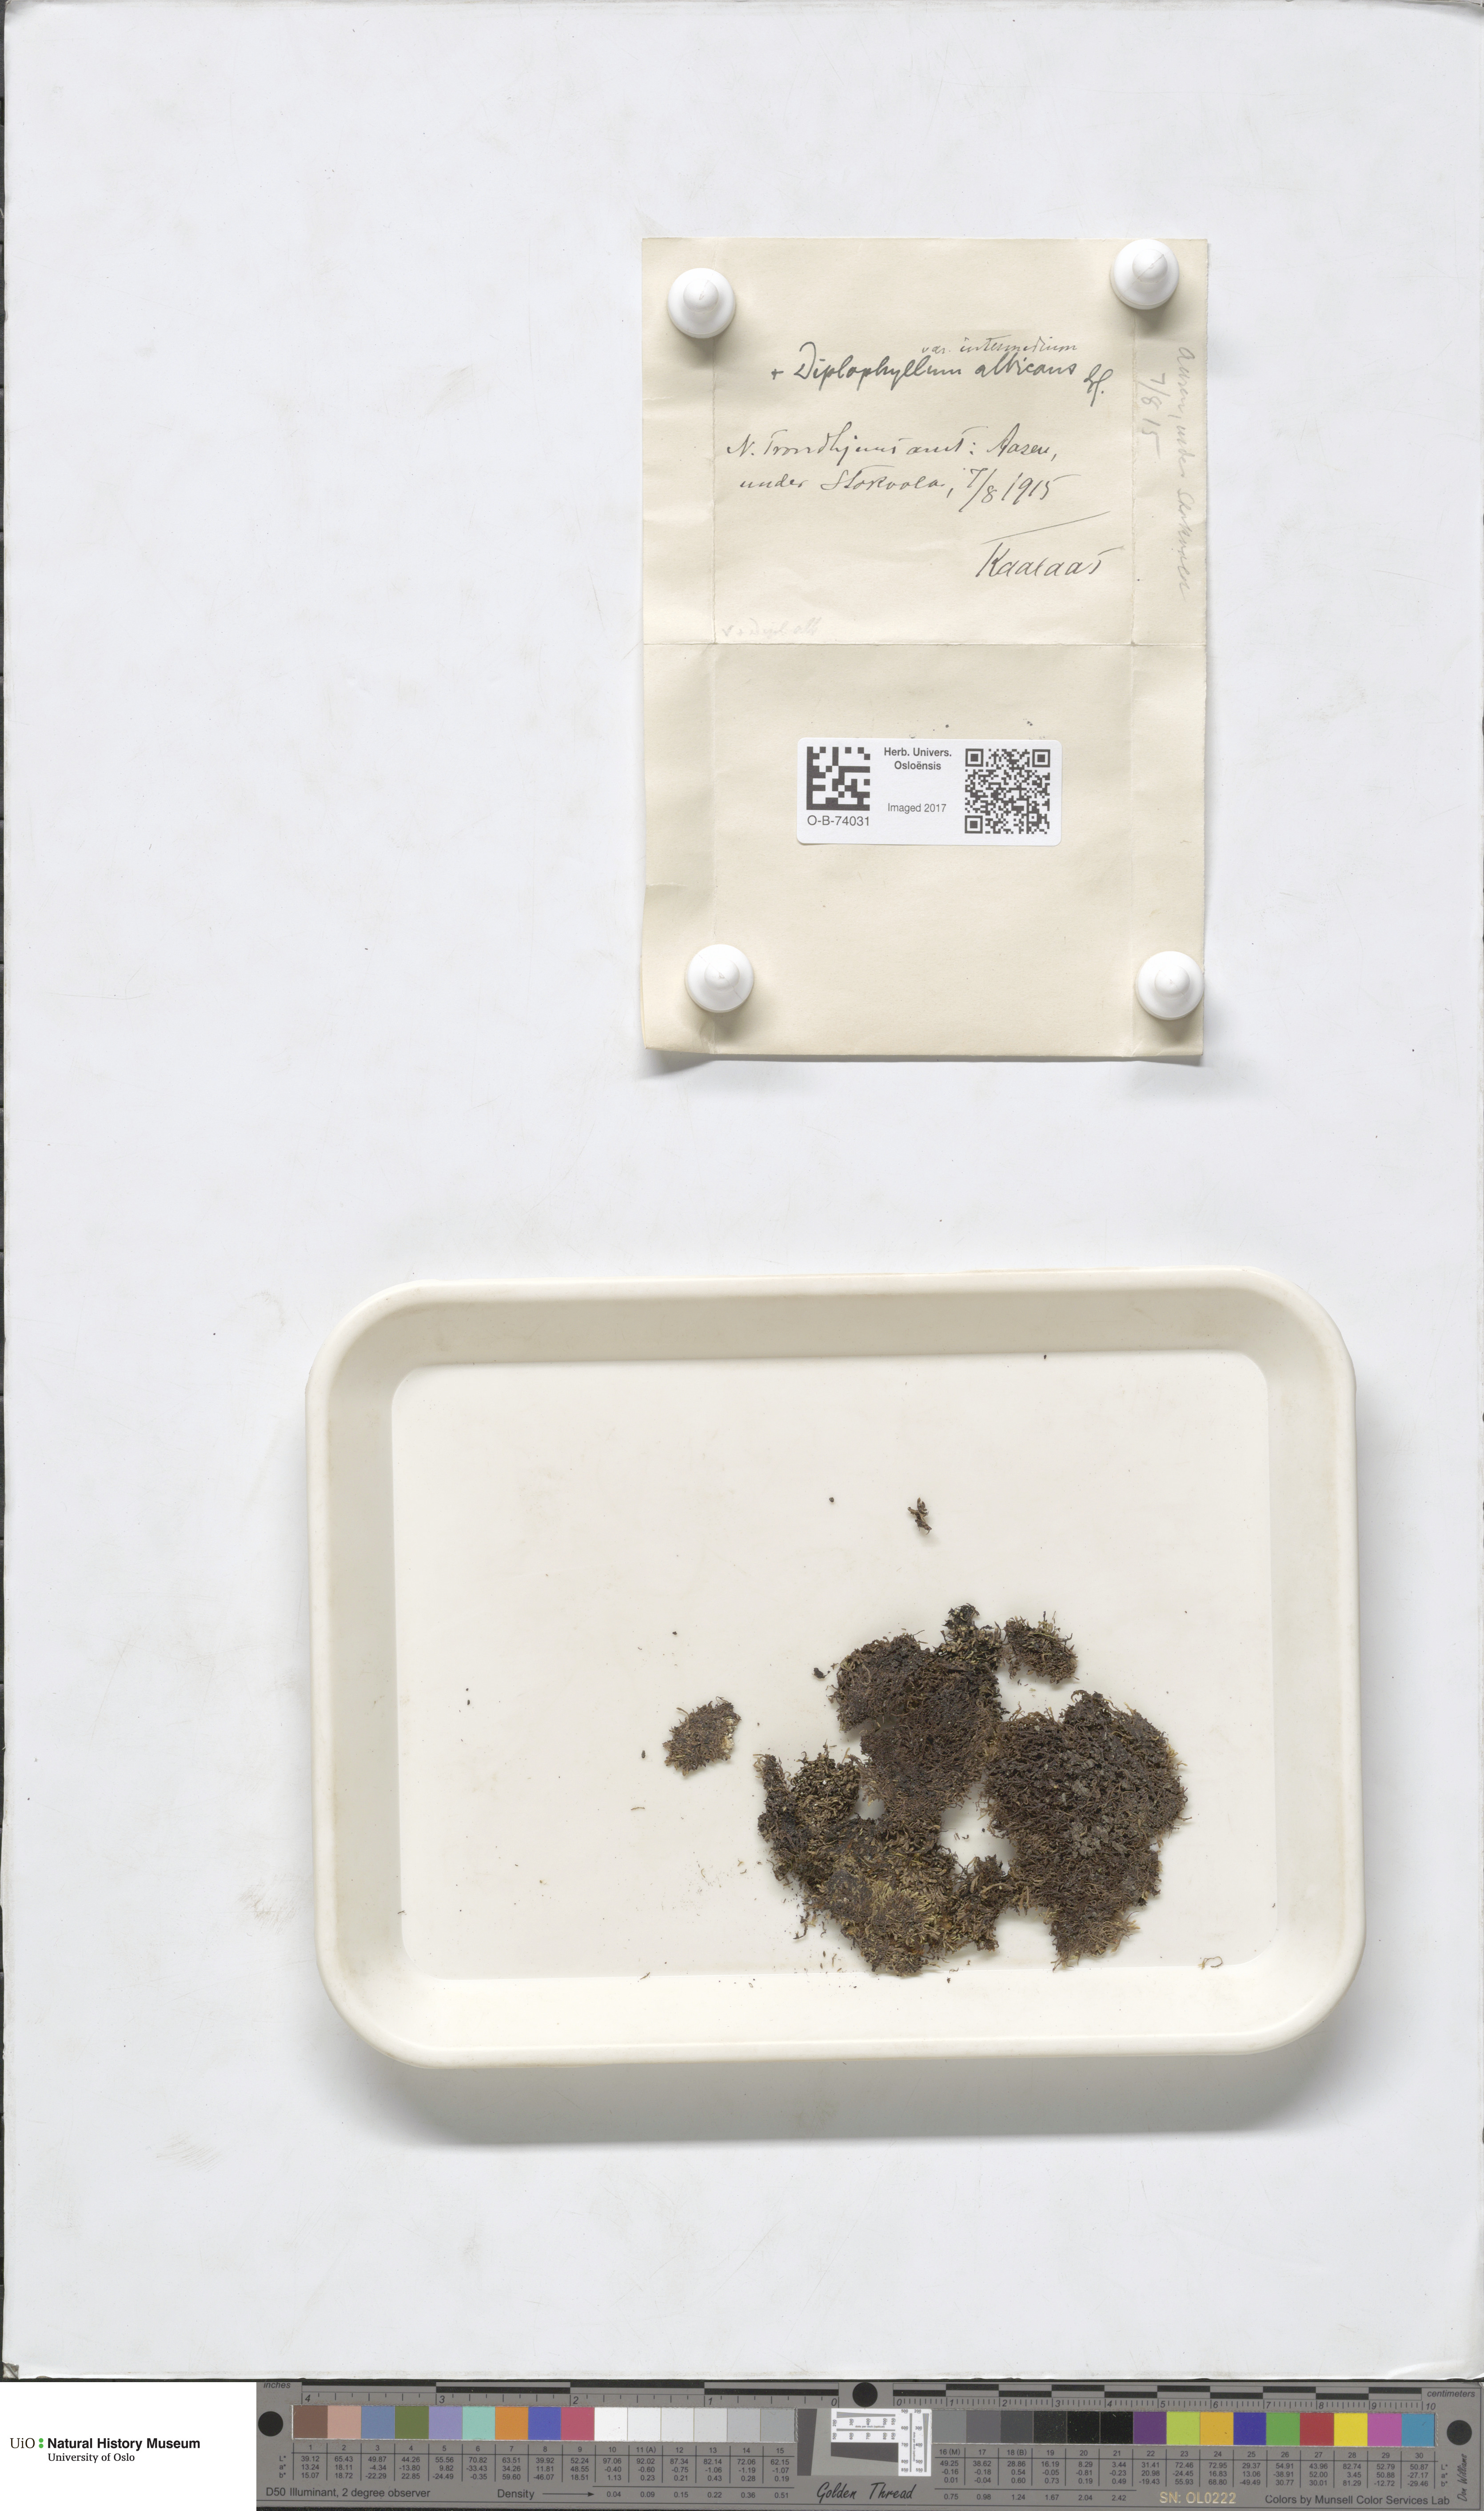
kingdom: Plantae
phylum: Marchantiophyta
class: Jungermanniopsida
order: Jungermanniales
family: Gymnomitriaceae
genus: Marsupella
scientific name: Marsupella apiculata
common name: Pointed frostwort
